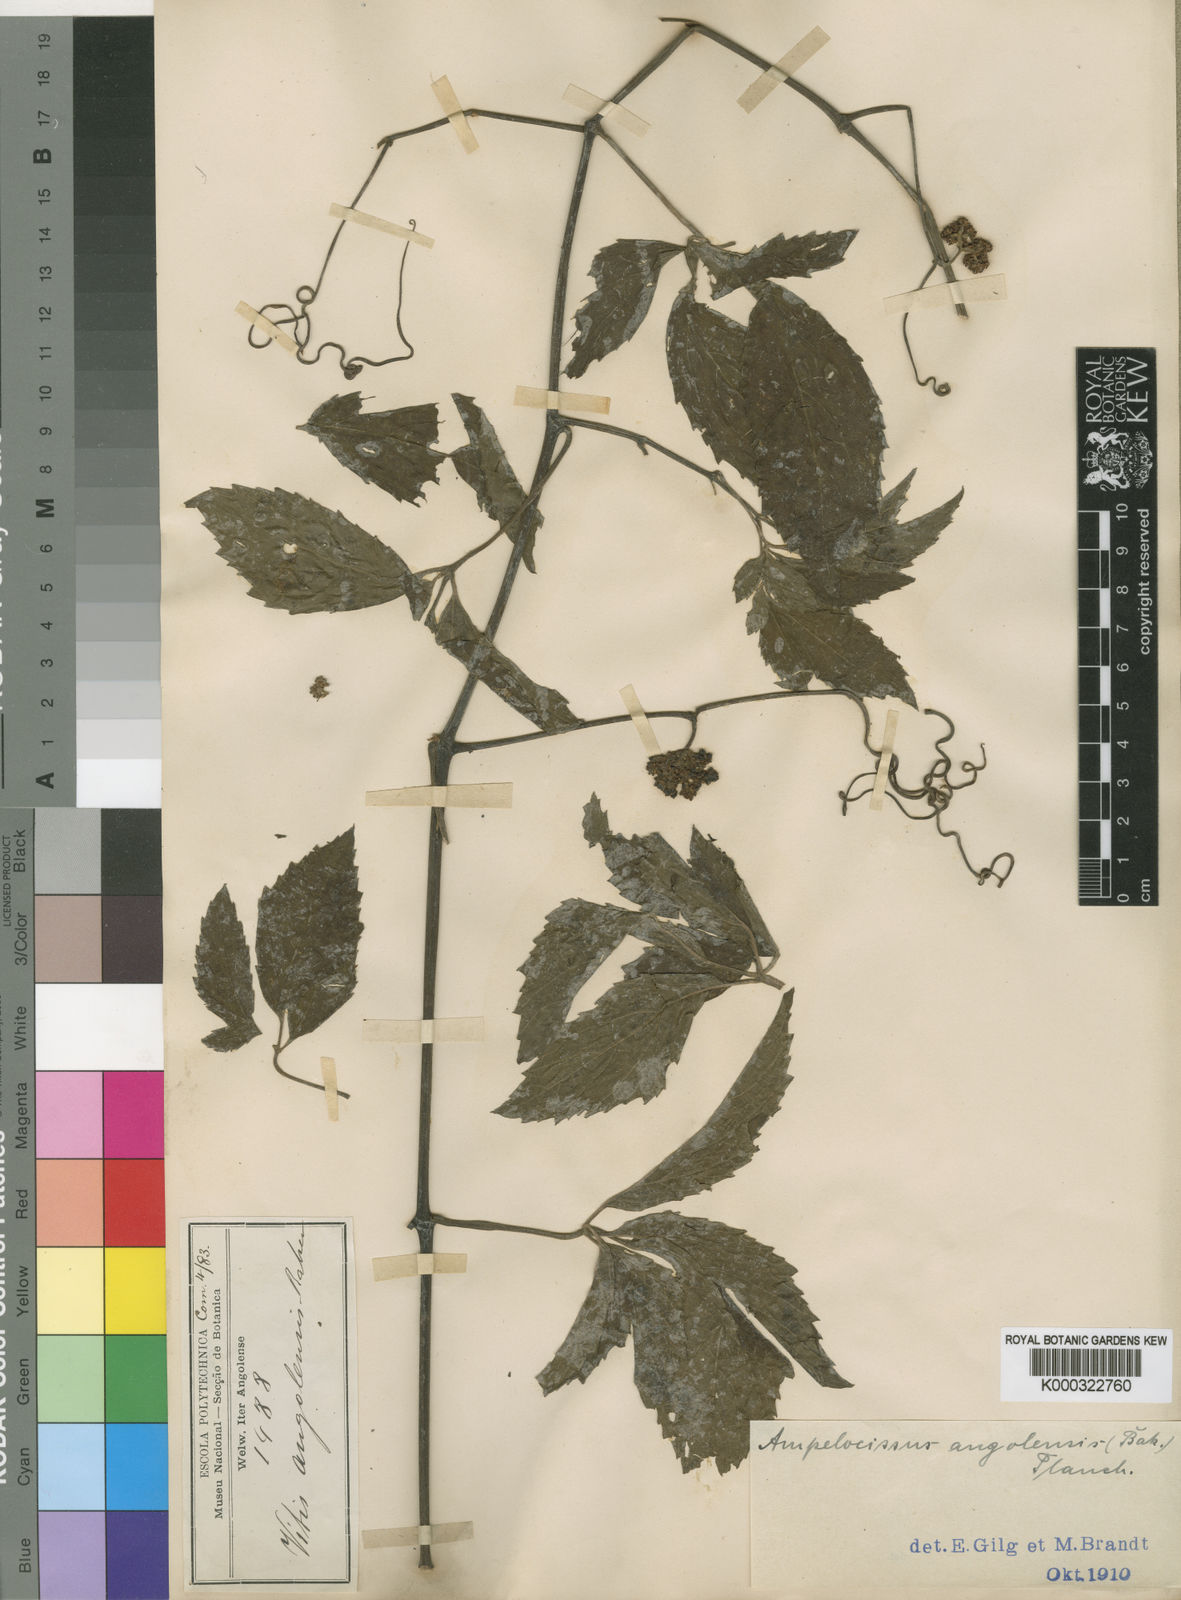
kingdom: Plantae
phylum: Tracheophyta
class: Magnoliopsida
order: Vitales
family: Vitaceae
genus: Ampelocissus
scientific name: Ampelocissus angolensis
